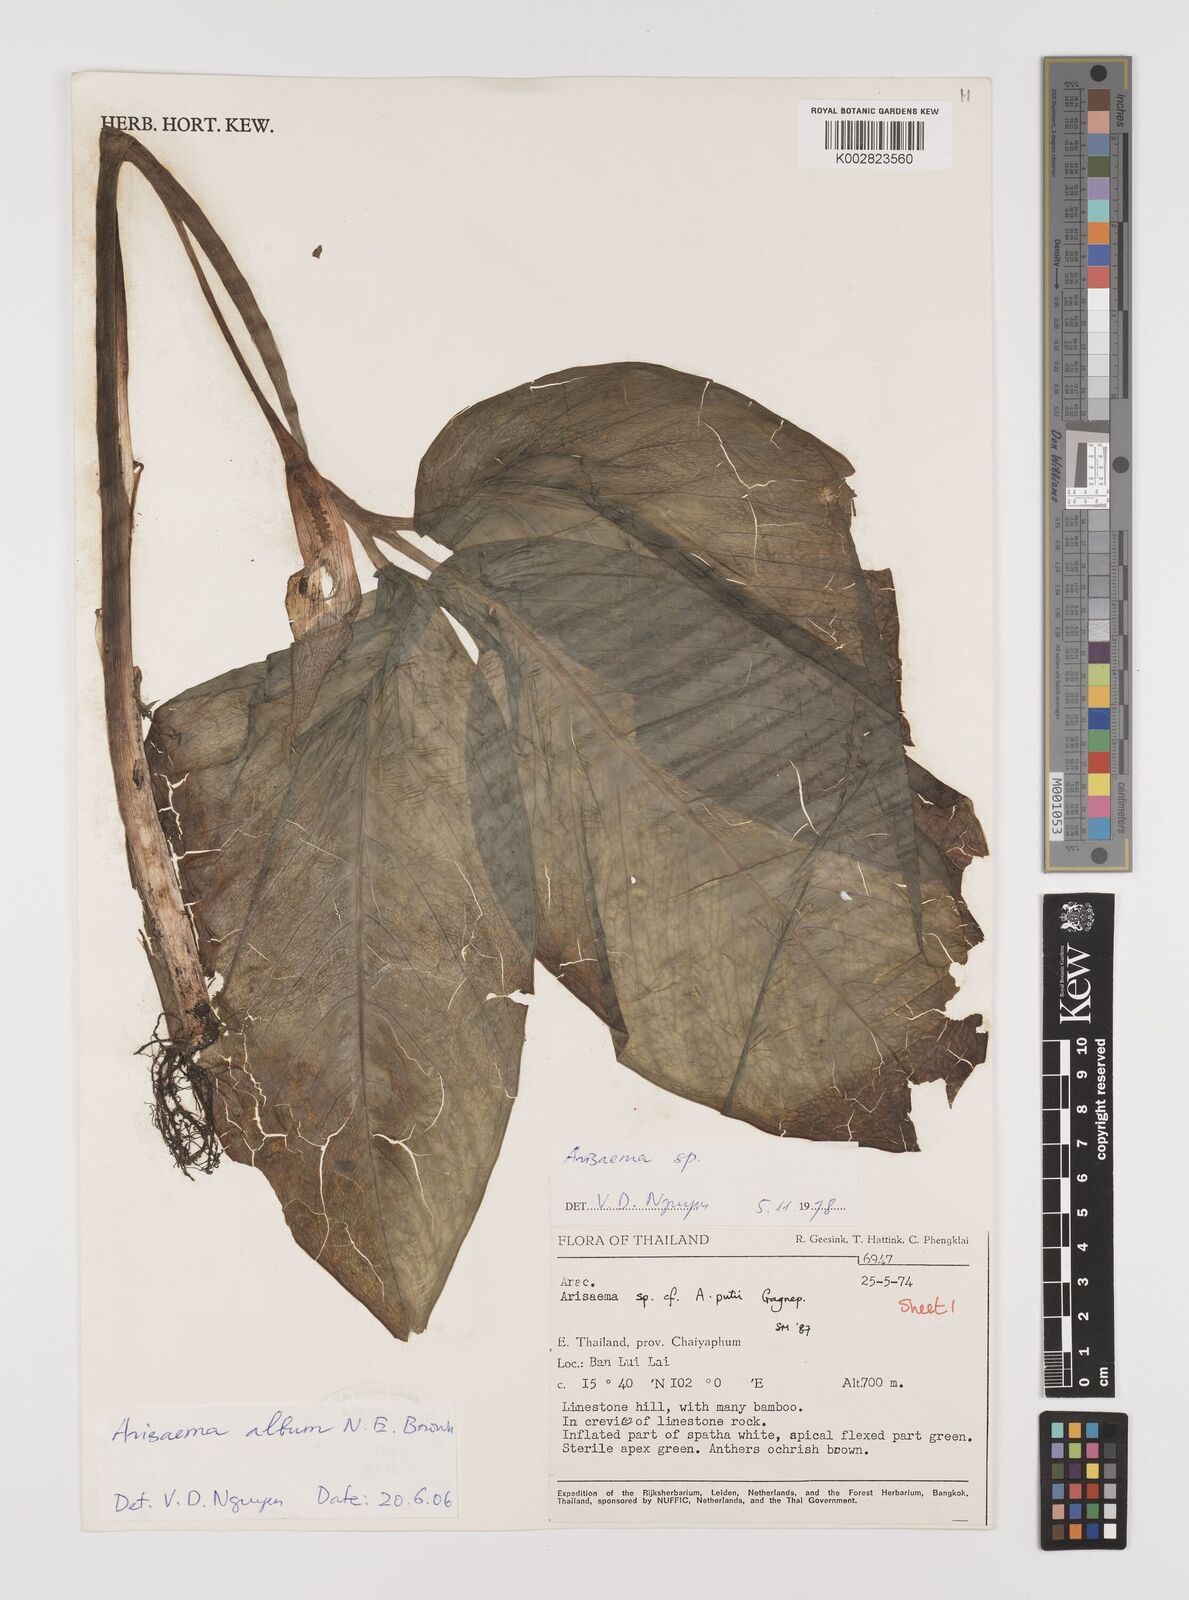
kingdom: Plantae
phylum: Tracheophyta
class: Liliopsida
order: Alismatales
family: Araceae
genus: Arisaema
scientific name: Arisaema album
